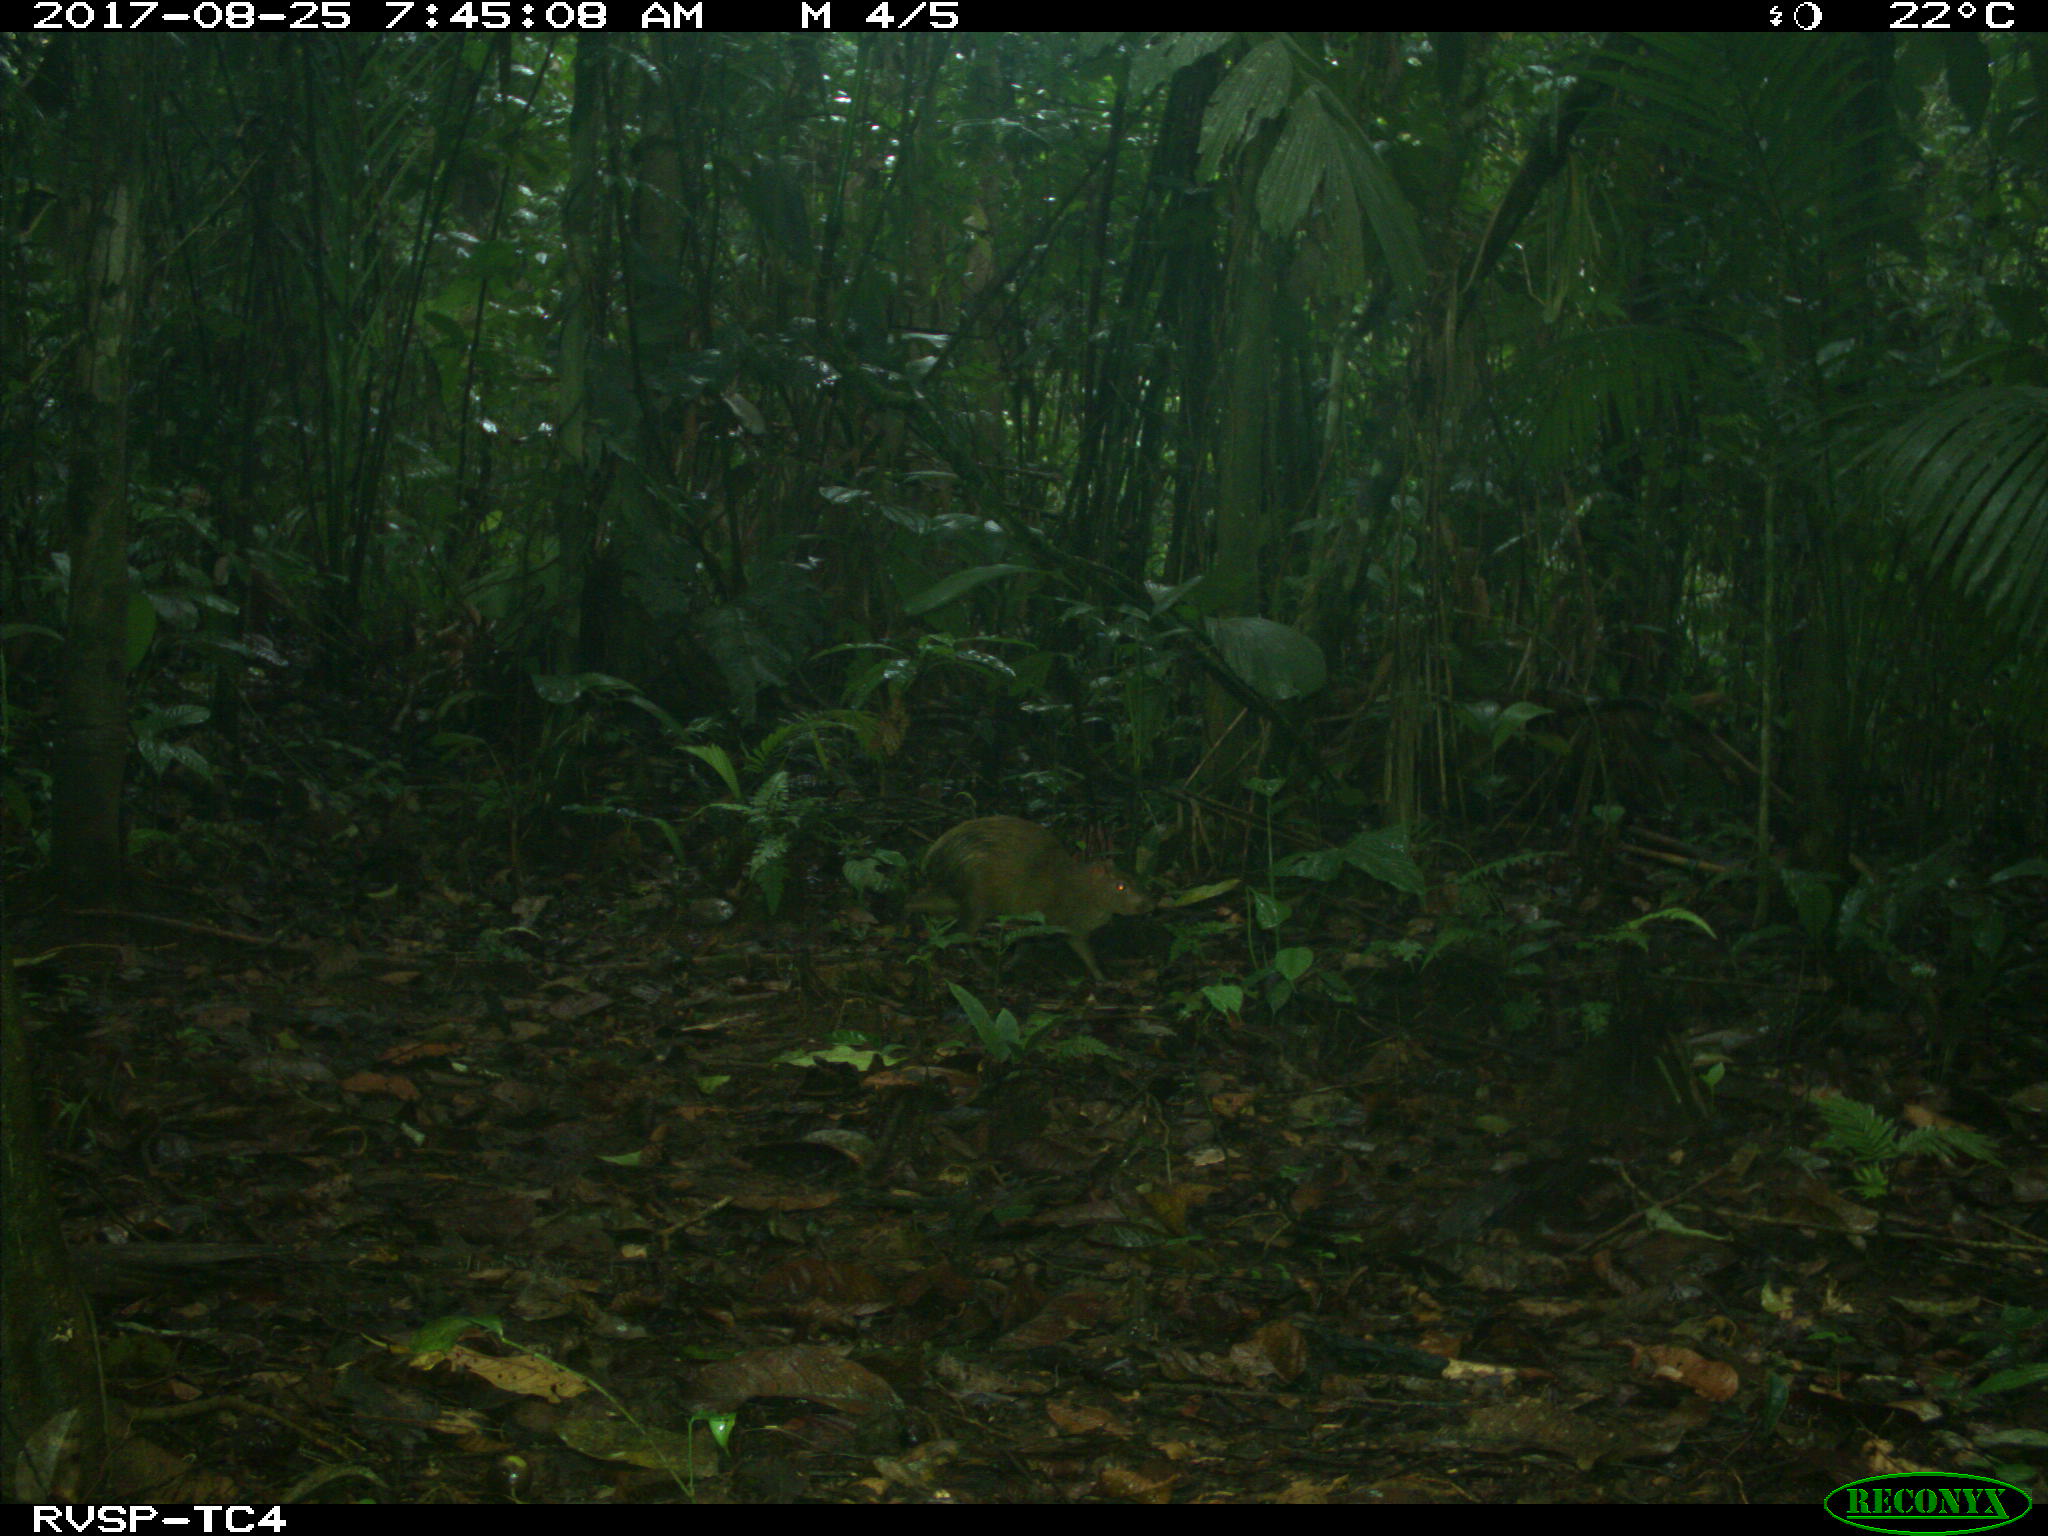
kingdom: Animalia
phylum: Chordata
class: Mammalia
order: Rodentia
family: Dasyproctidae
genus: Dasyprocta
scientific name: Dasyprocta punctata
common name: Central american agouti
